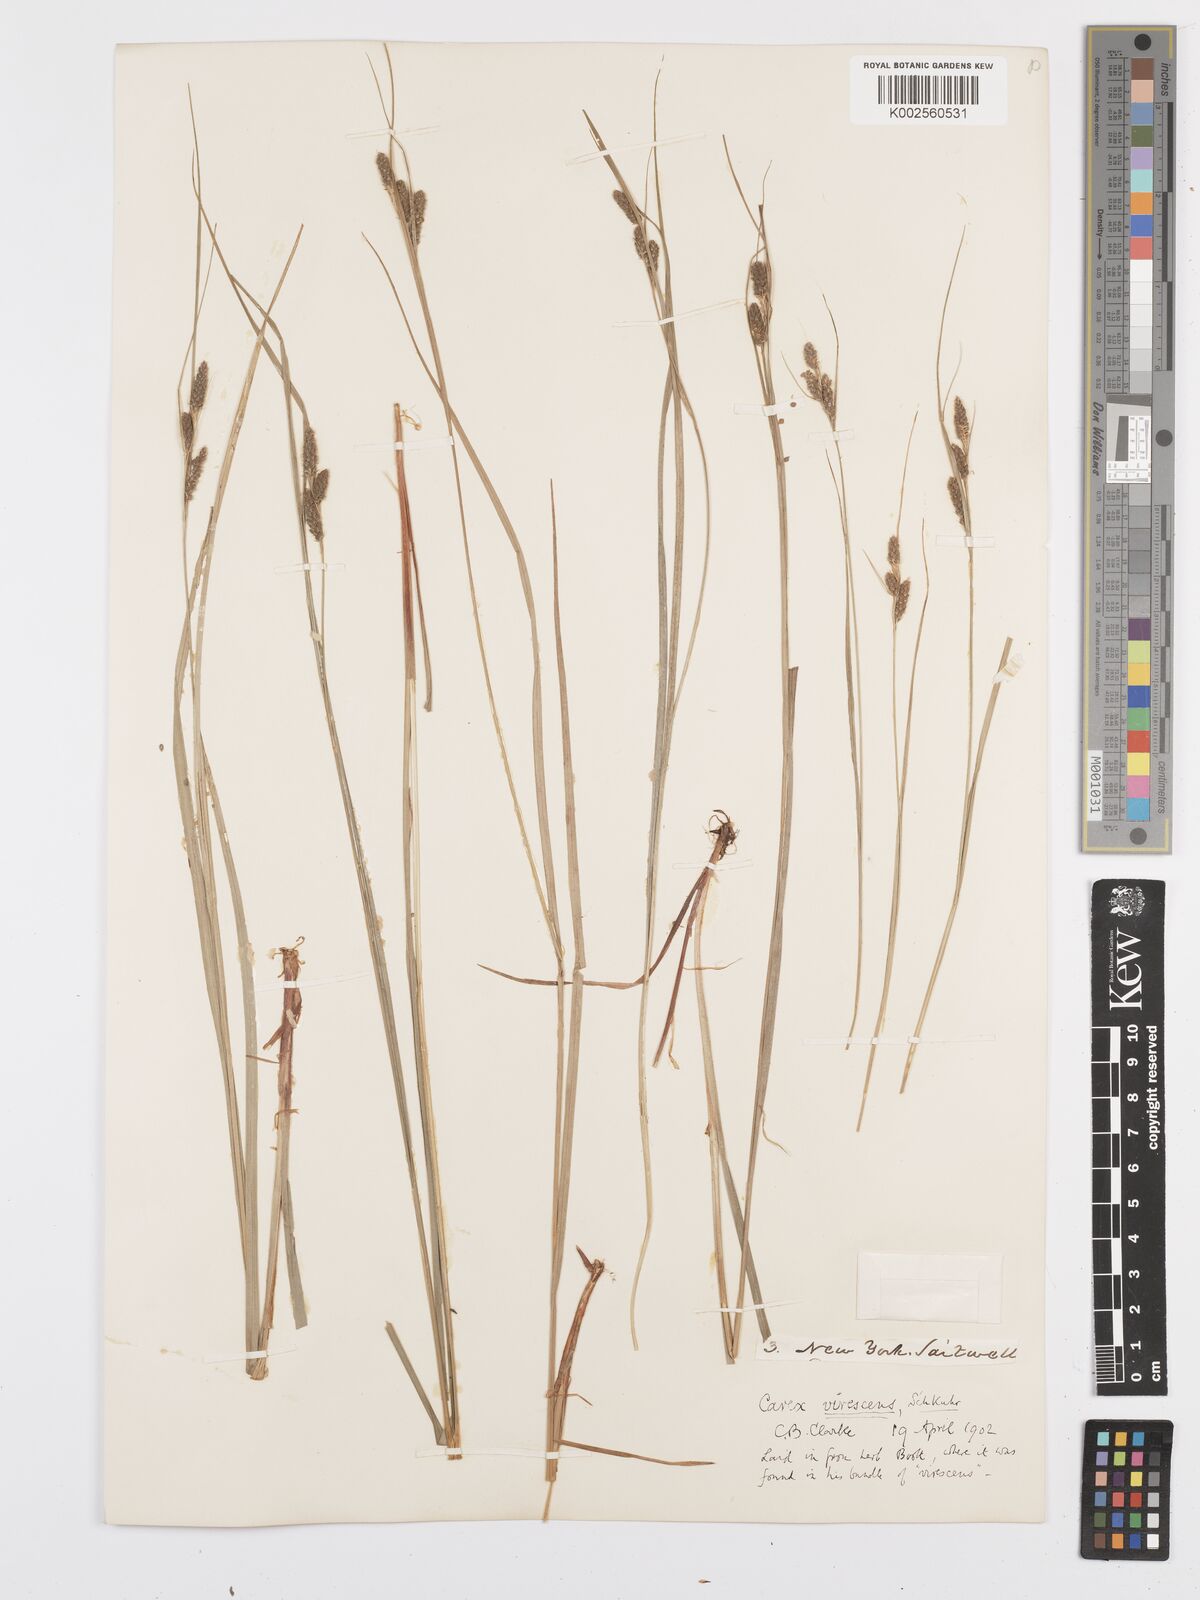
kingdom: Plantae
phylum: Tracheophyta
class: Liliopsida
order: Poales
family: Cyperaceae
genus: Carex
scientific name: Carex virescens
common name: Ribbed sedge
